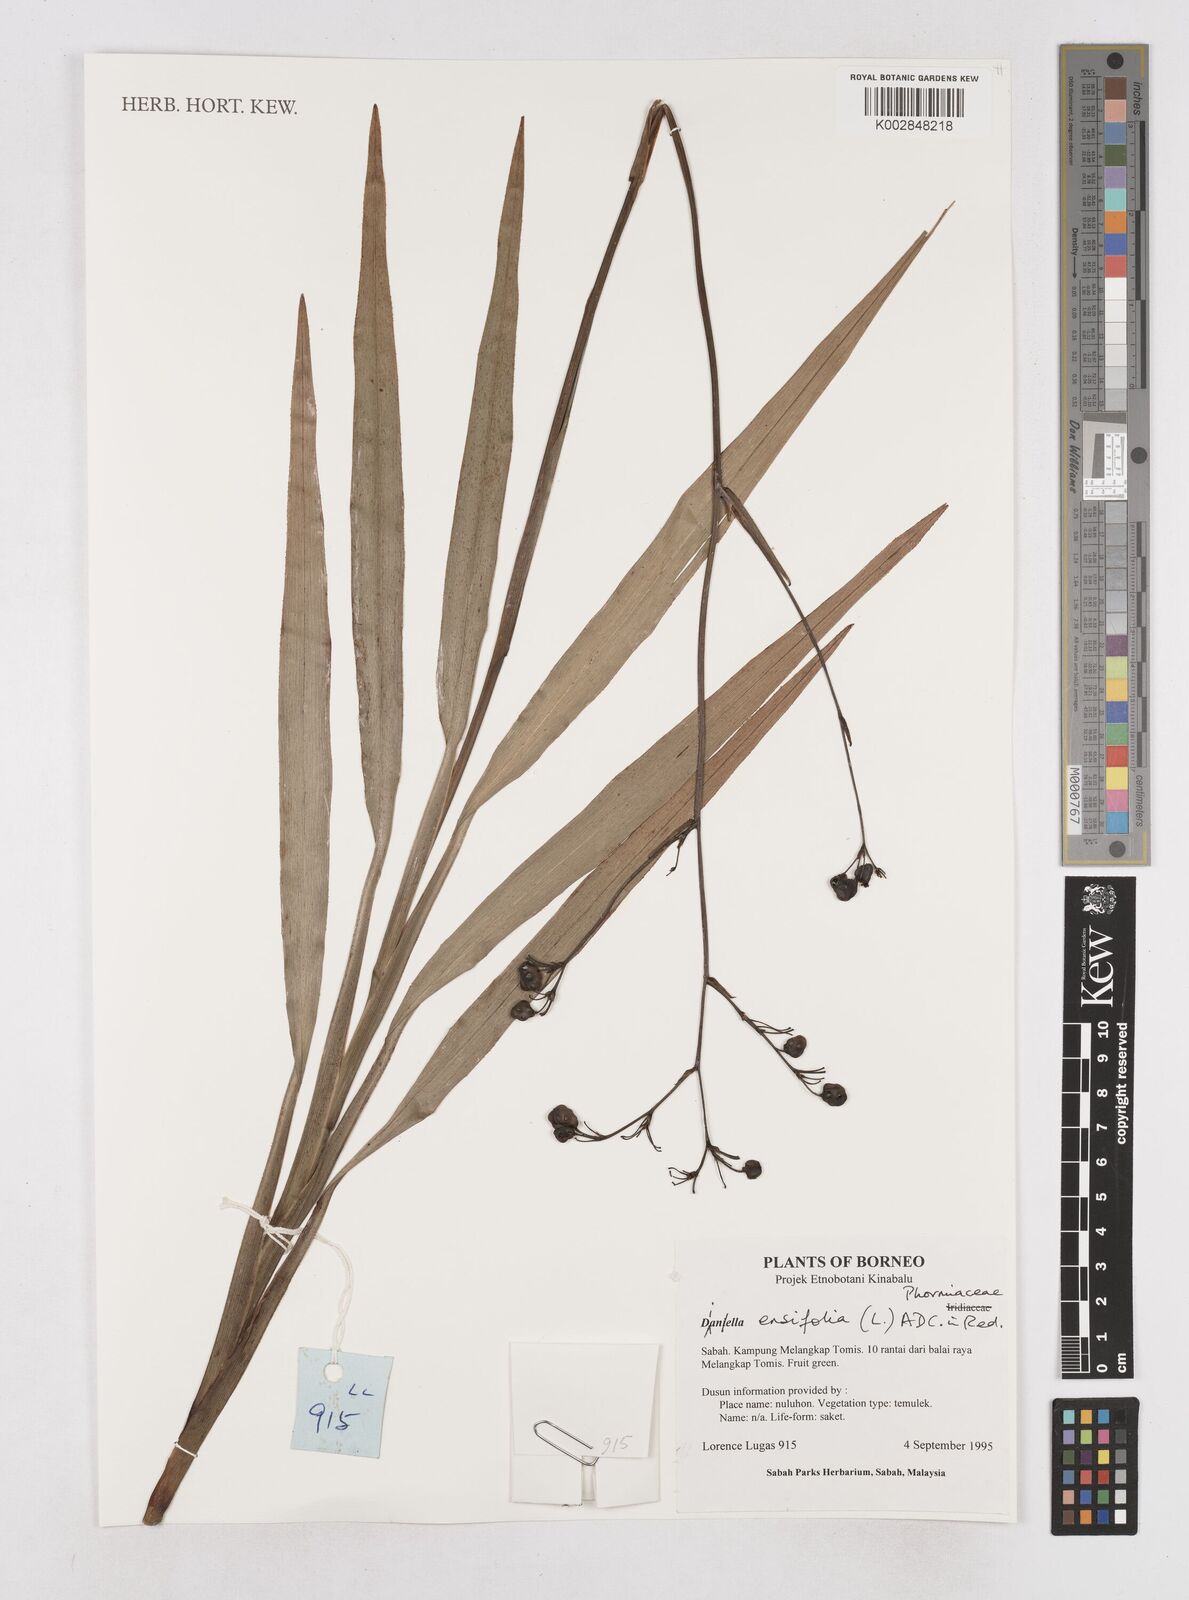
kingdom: Plantae
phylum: Tracheophyta
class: Liliopsida
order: Asparagales
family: Asphodelaceae
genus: Dianella
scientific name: Dianella ensifolia
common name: New zealand lilyplant
